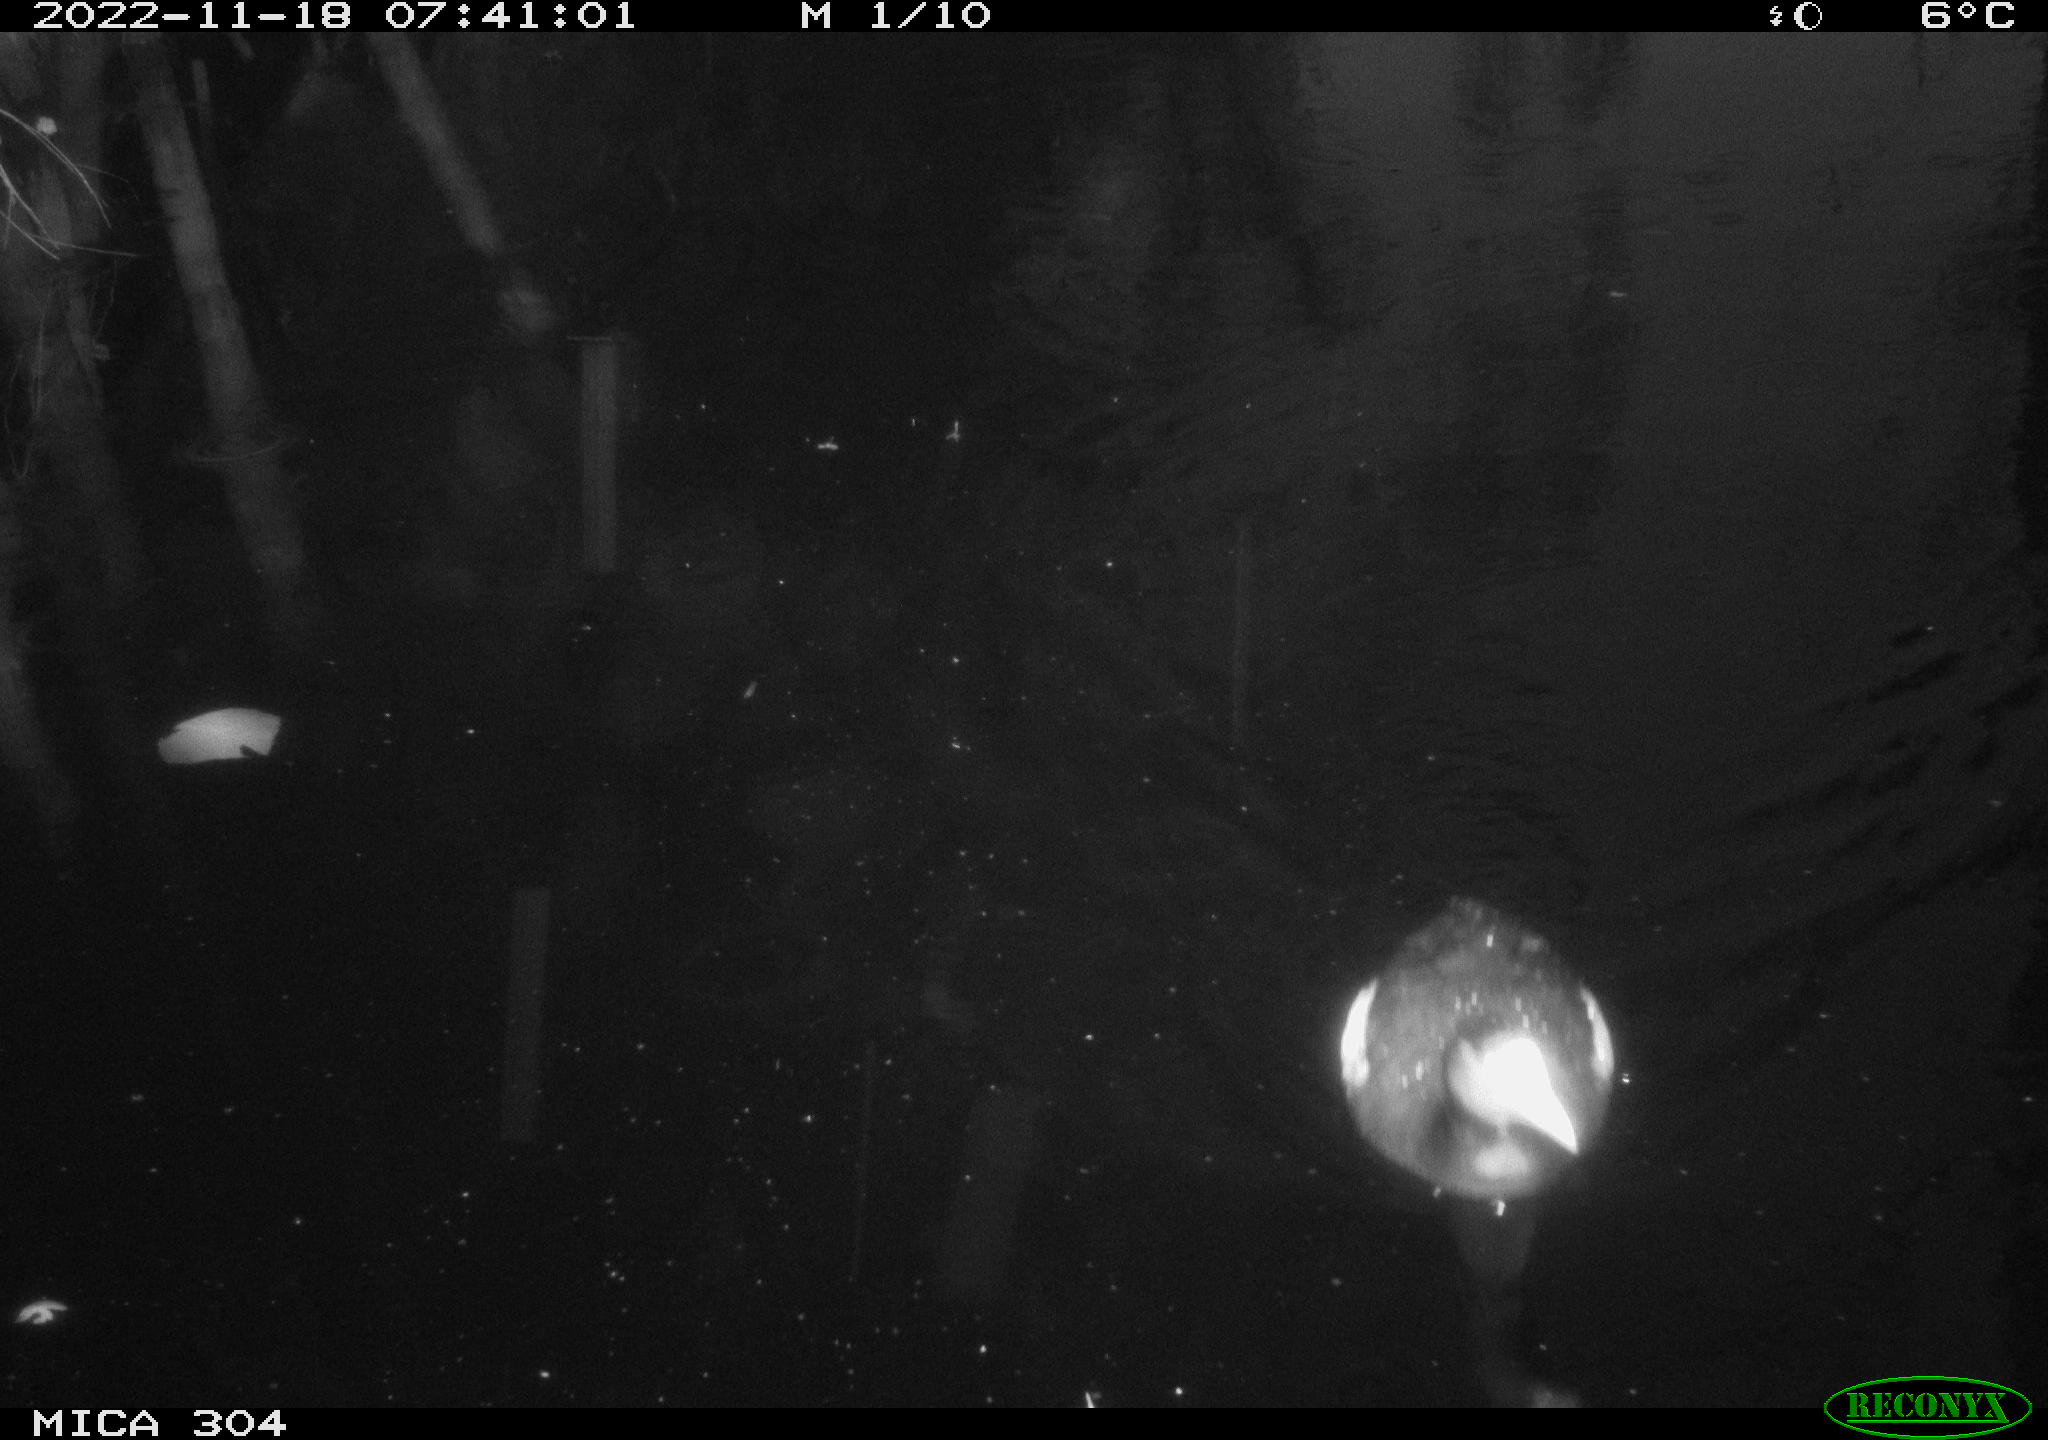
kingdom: Animalia
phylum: Chordata
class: Aves
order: Gruiformes
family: Rallidae
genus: Fulica
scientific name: Fulica atra
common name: Eurasian coot
